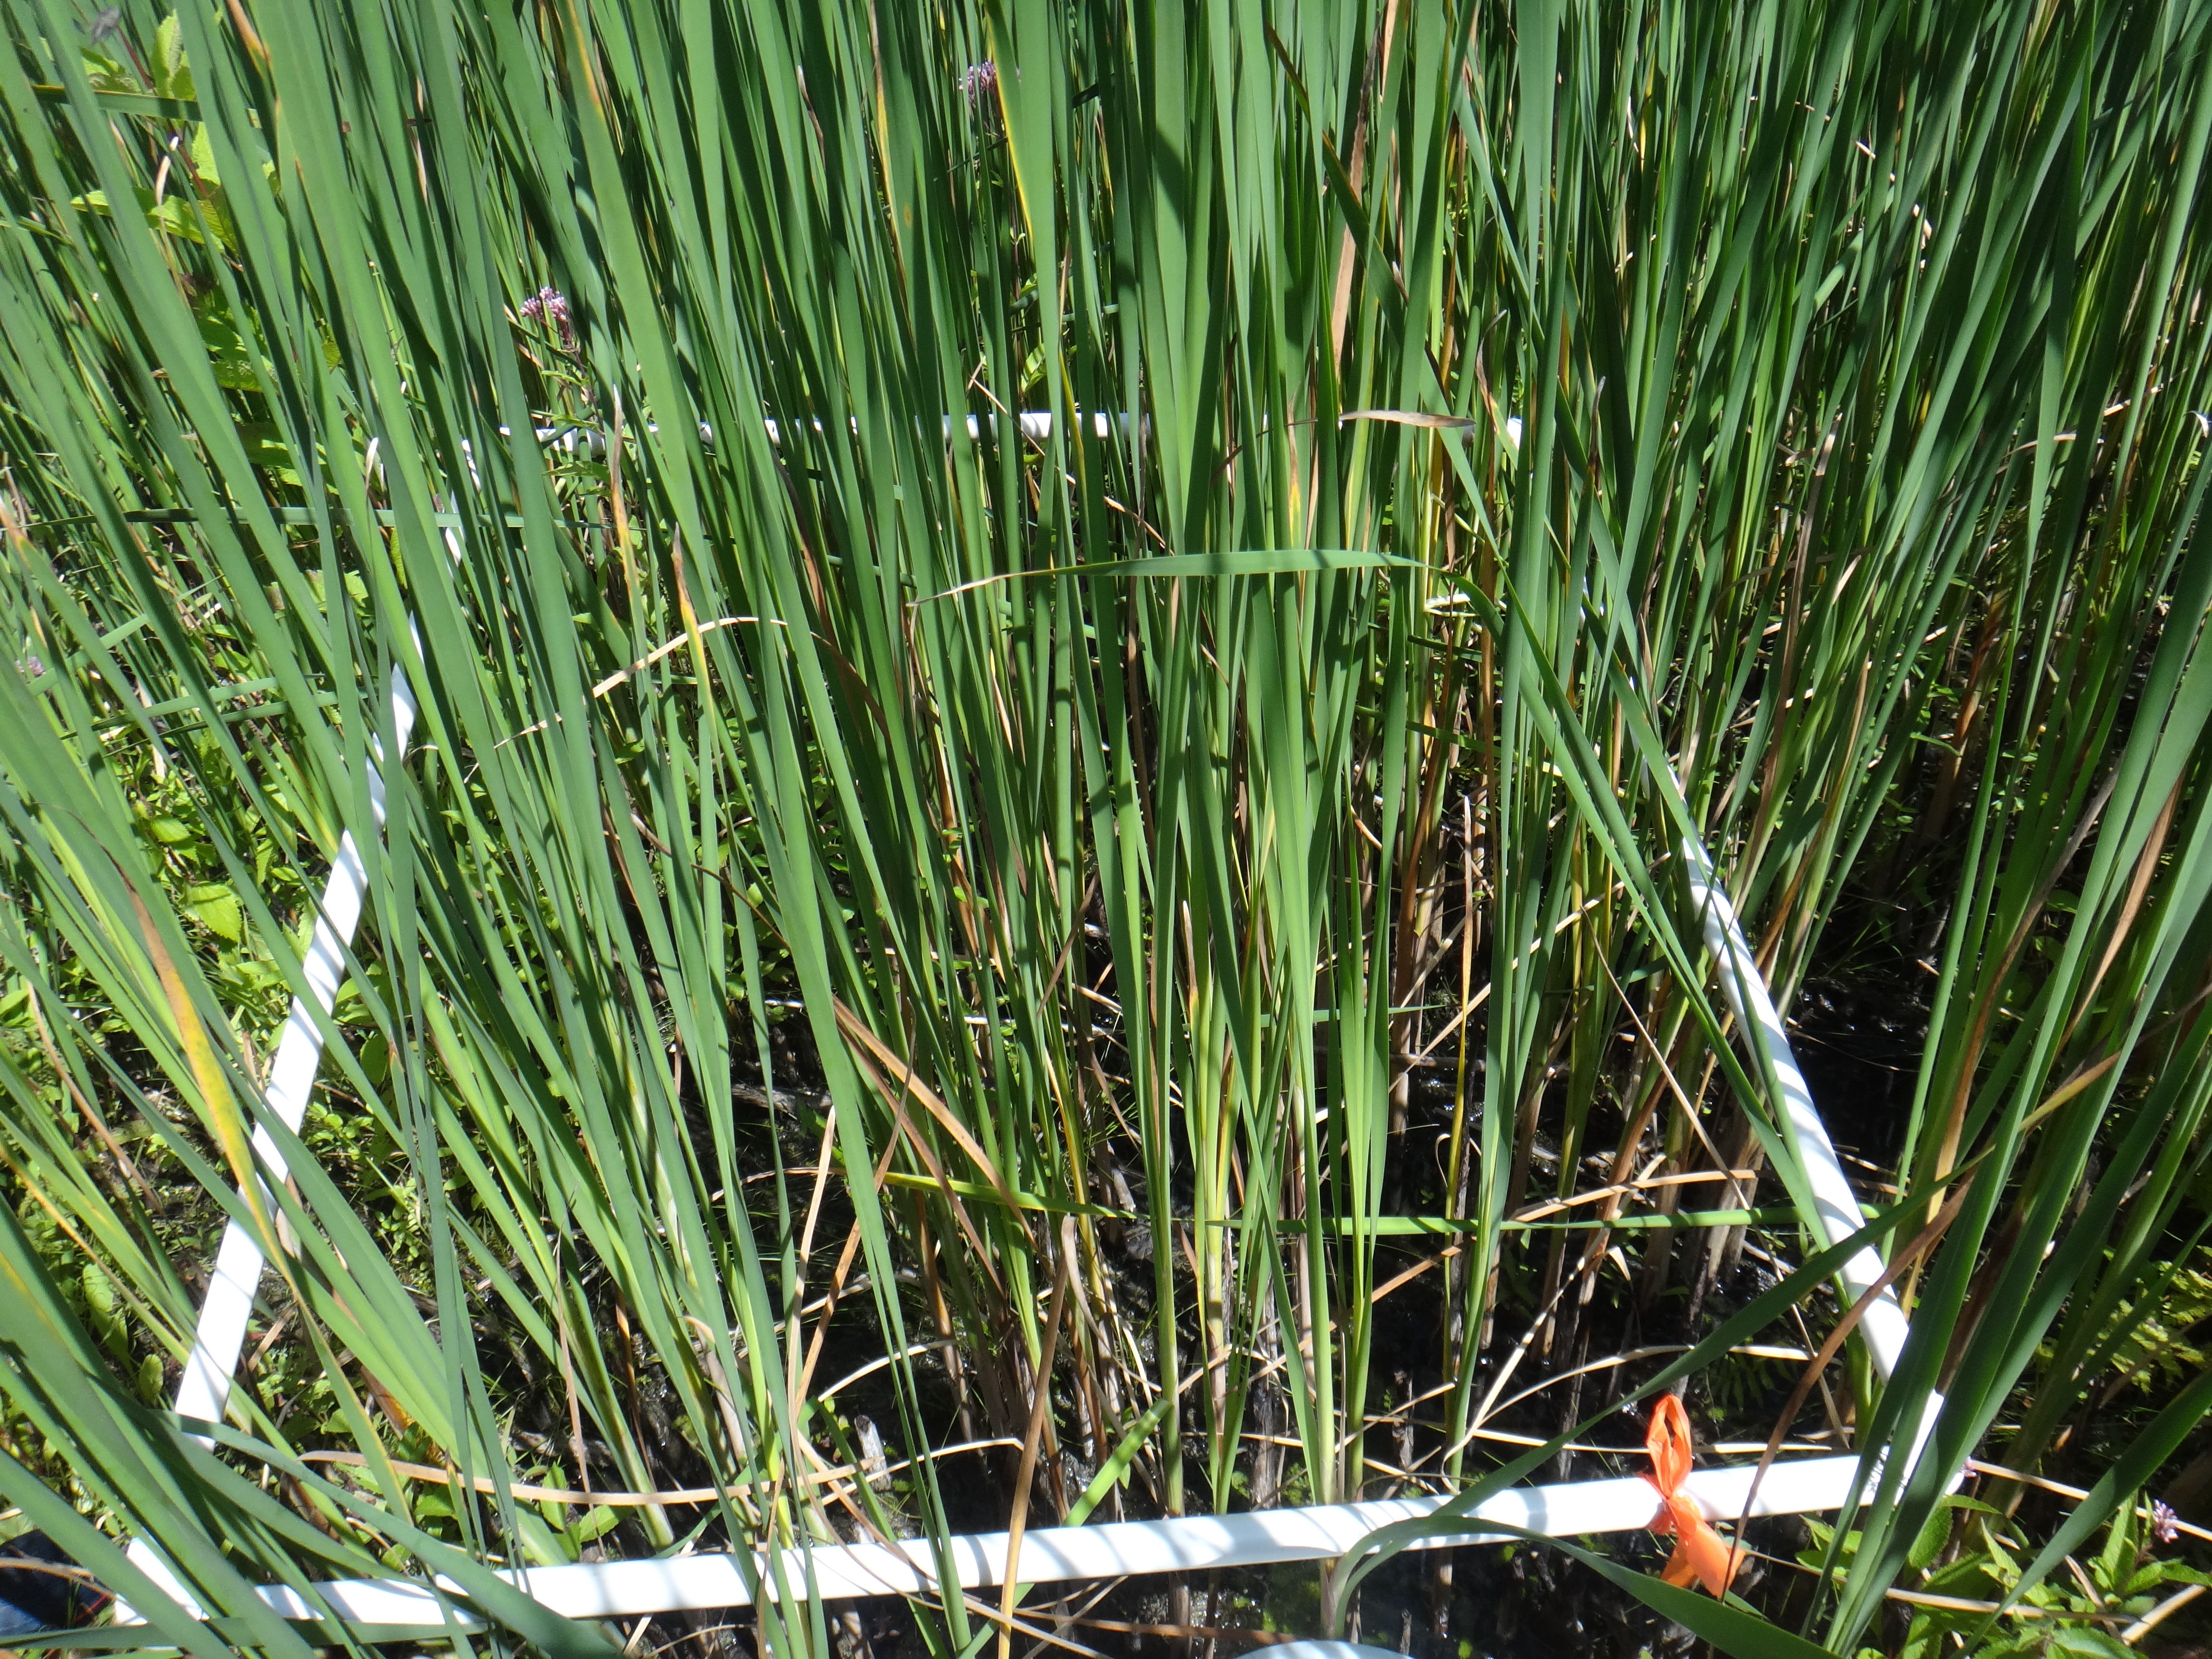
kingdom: Plantae
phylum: Tracheophyta
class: Magnoliopsida
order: Caryophyllales
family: Polygonaceae
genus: Persicaria
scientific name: Persicaria amphibia
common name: Amphibious bistort
